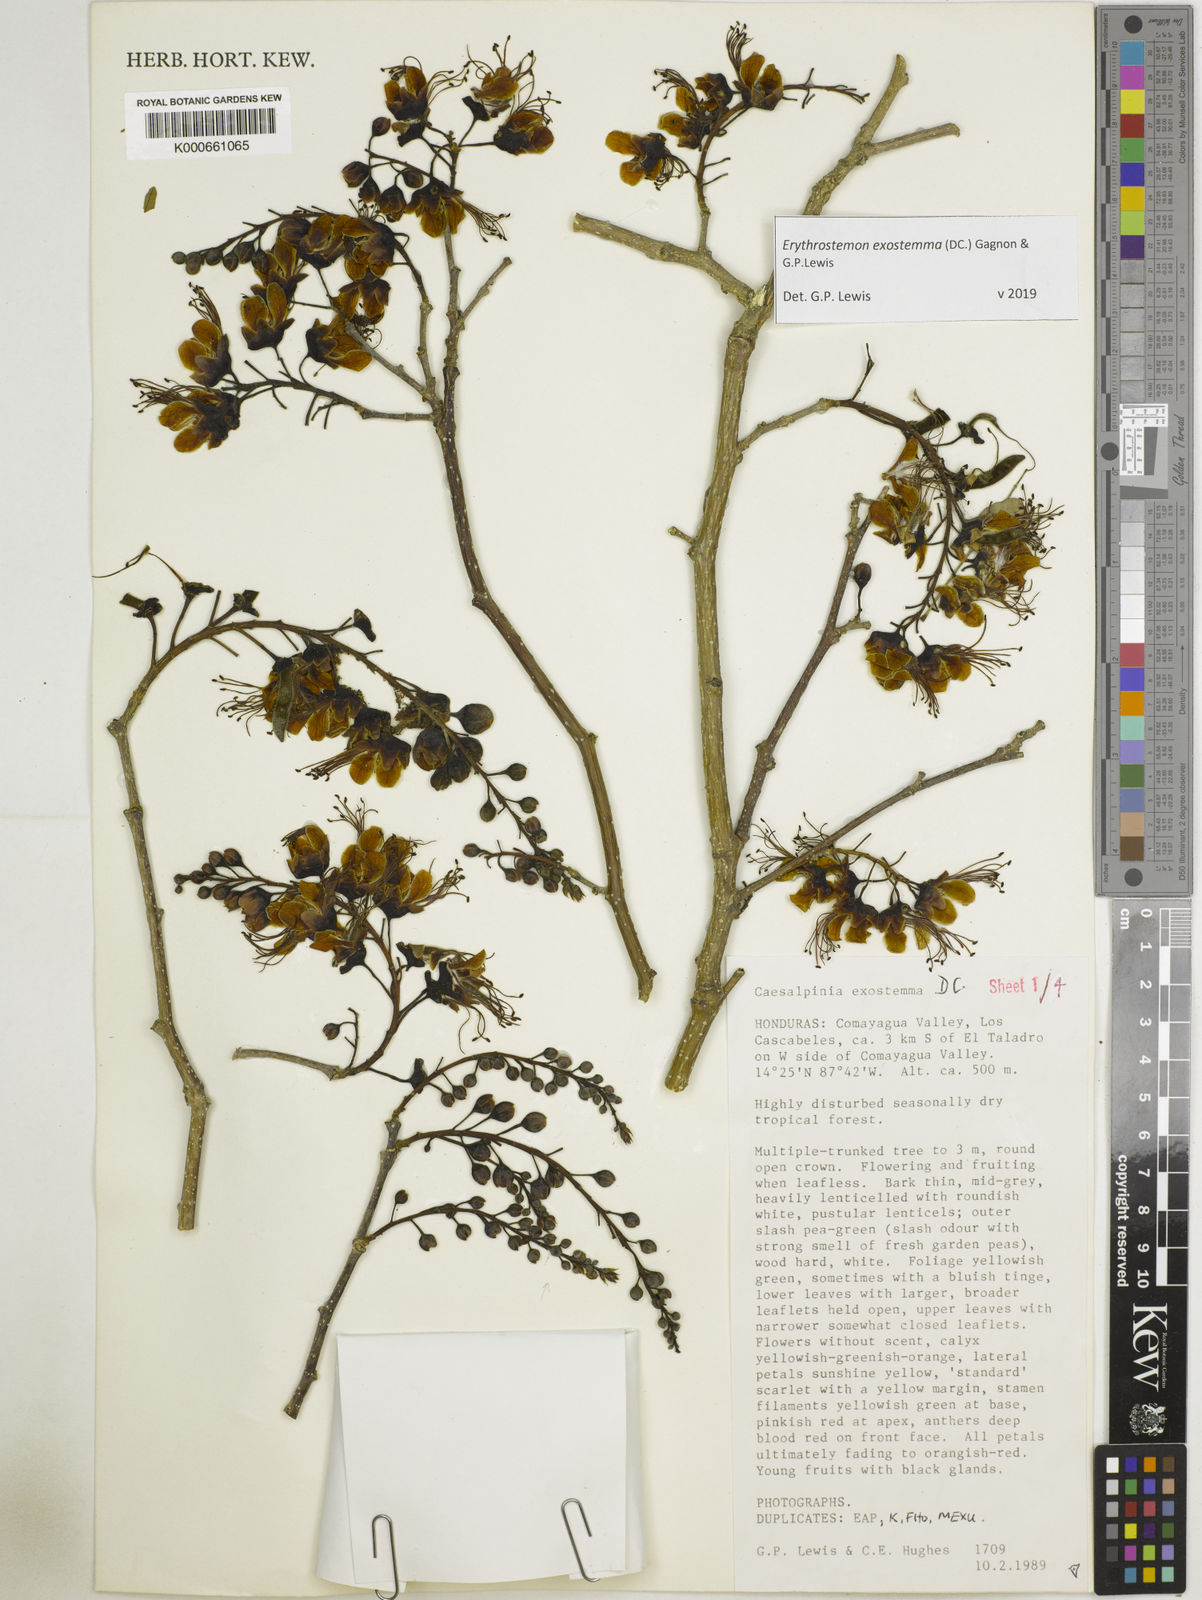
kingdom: Plantae
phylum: Tracheophyta
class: Magnoliopsida
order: Fabales
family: Fabaceae
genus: Erythrostemon
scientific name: Erythrostemon exostemma
